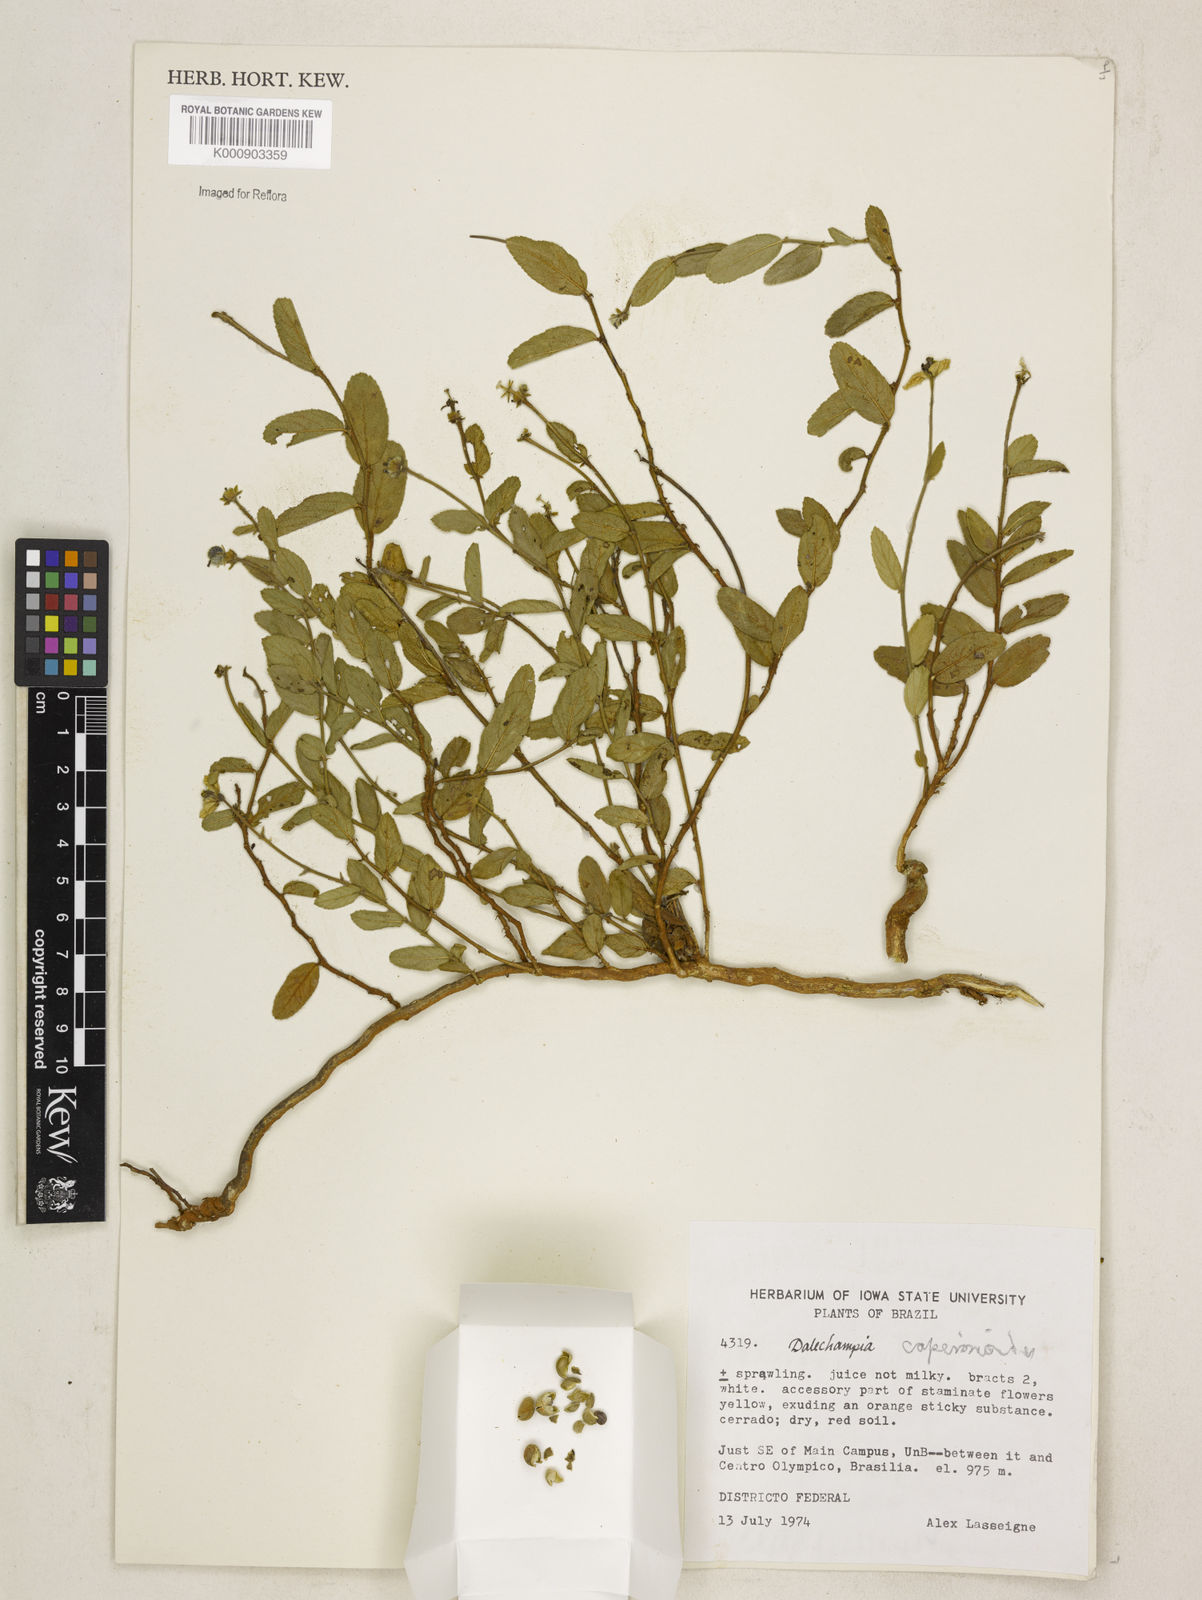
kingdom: Plantae
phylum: Tracheophyta
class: Magnoliopsida
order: Malpighiales
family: Euphorbiaceae
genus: Dalechampia
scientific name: Dalechampia
